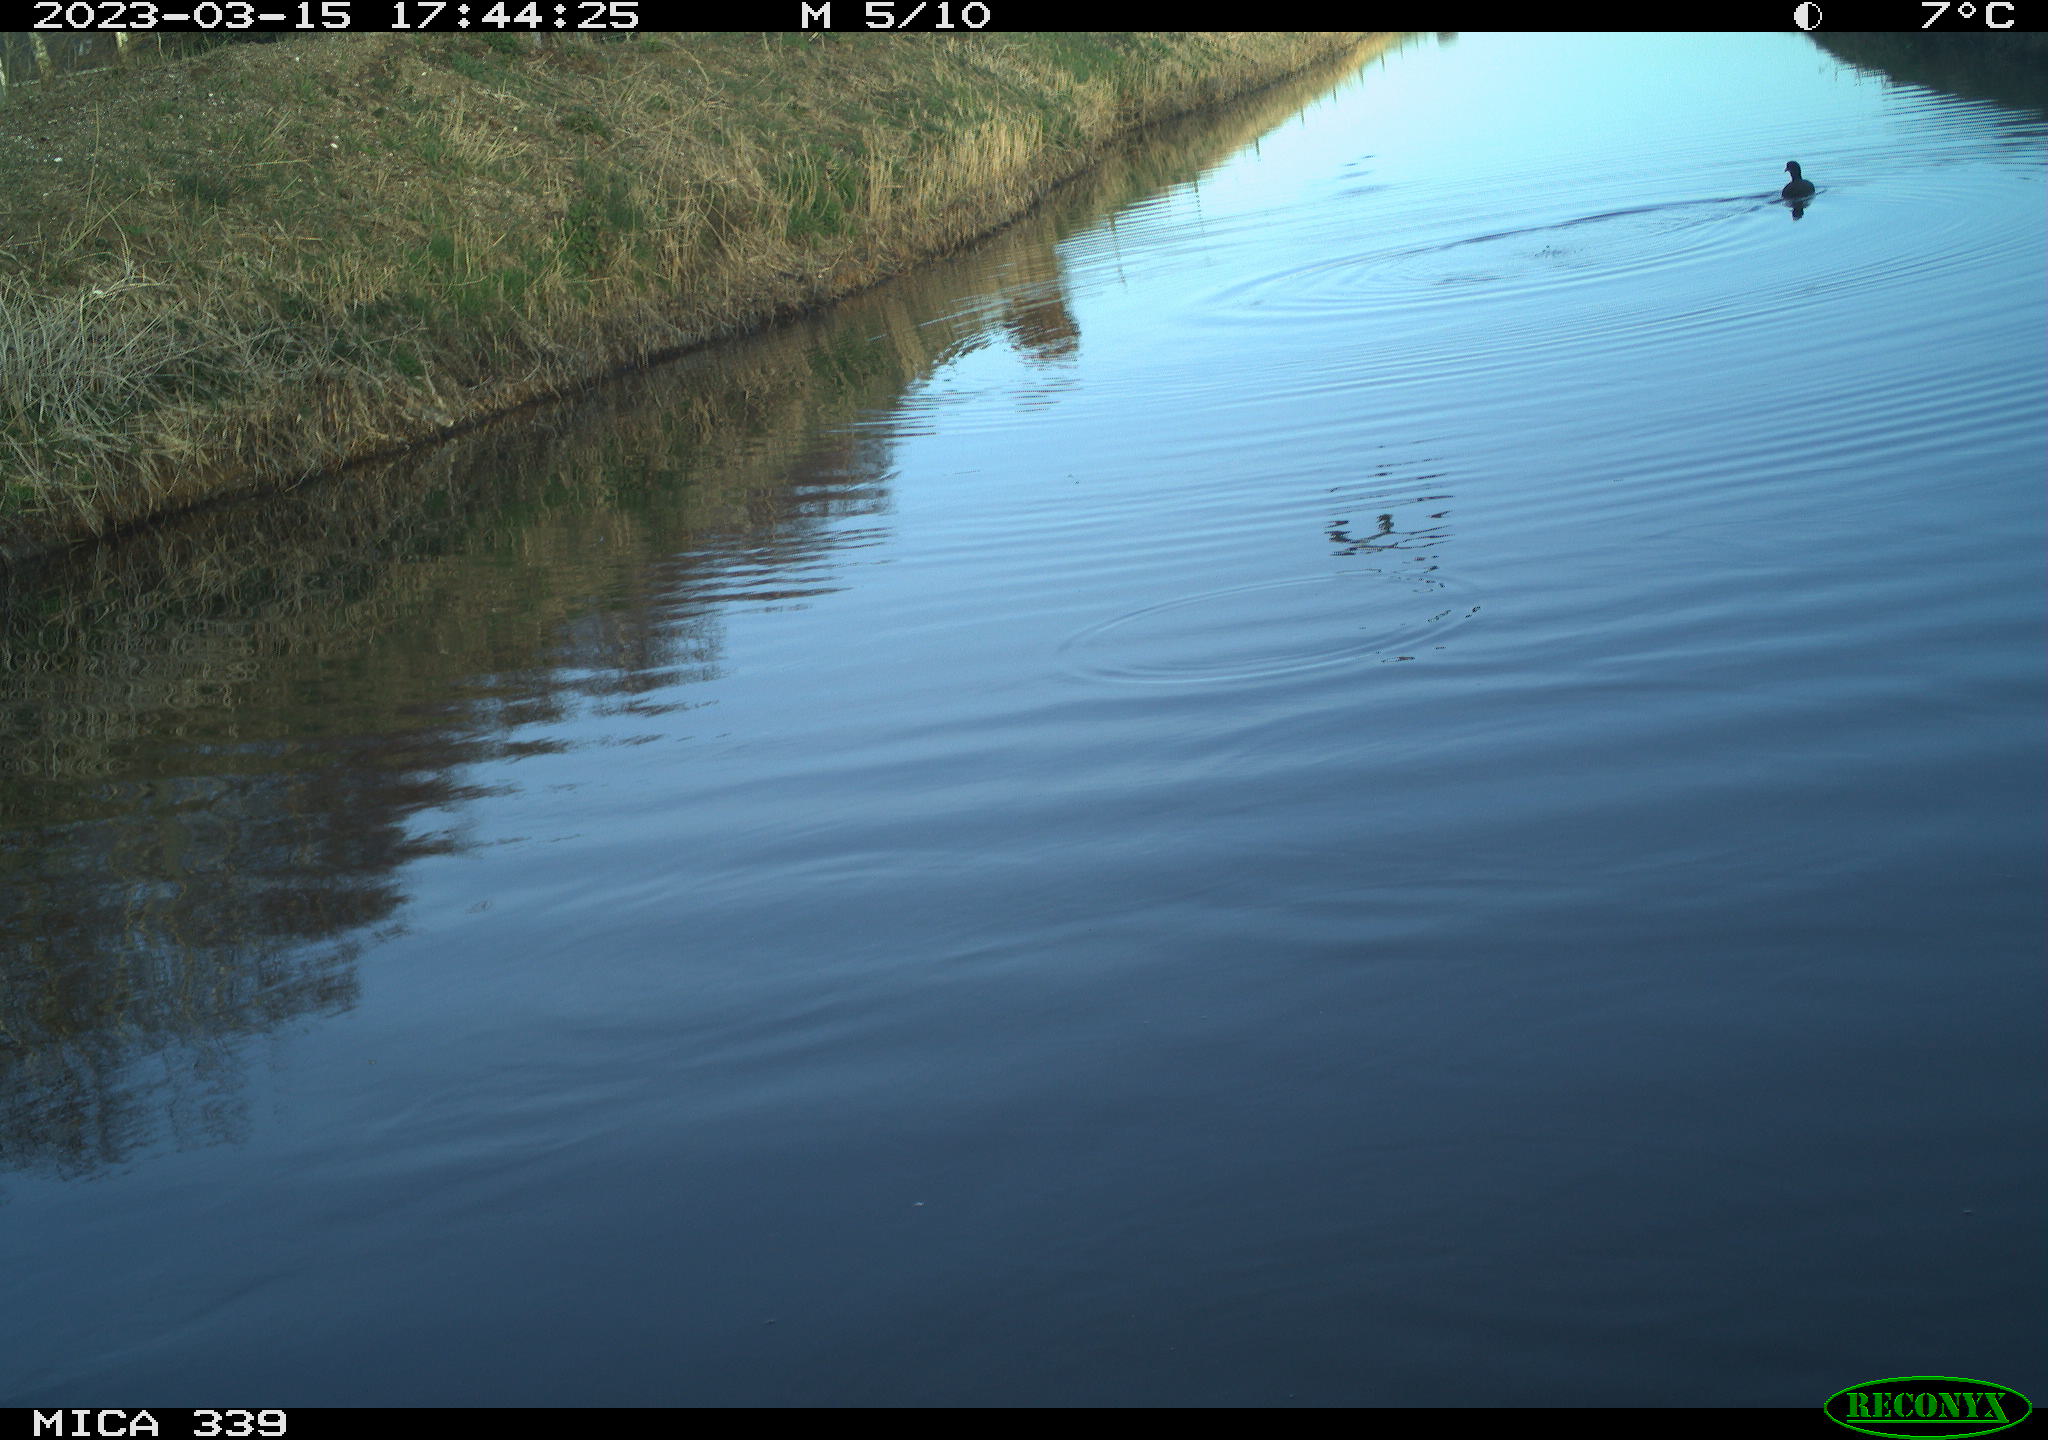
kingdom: Animalia
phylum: Chordata
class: Aves
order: Pelecaniformes
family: Ardeidae
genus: Ardea
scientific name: Ardea
